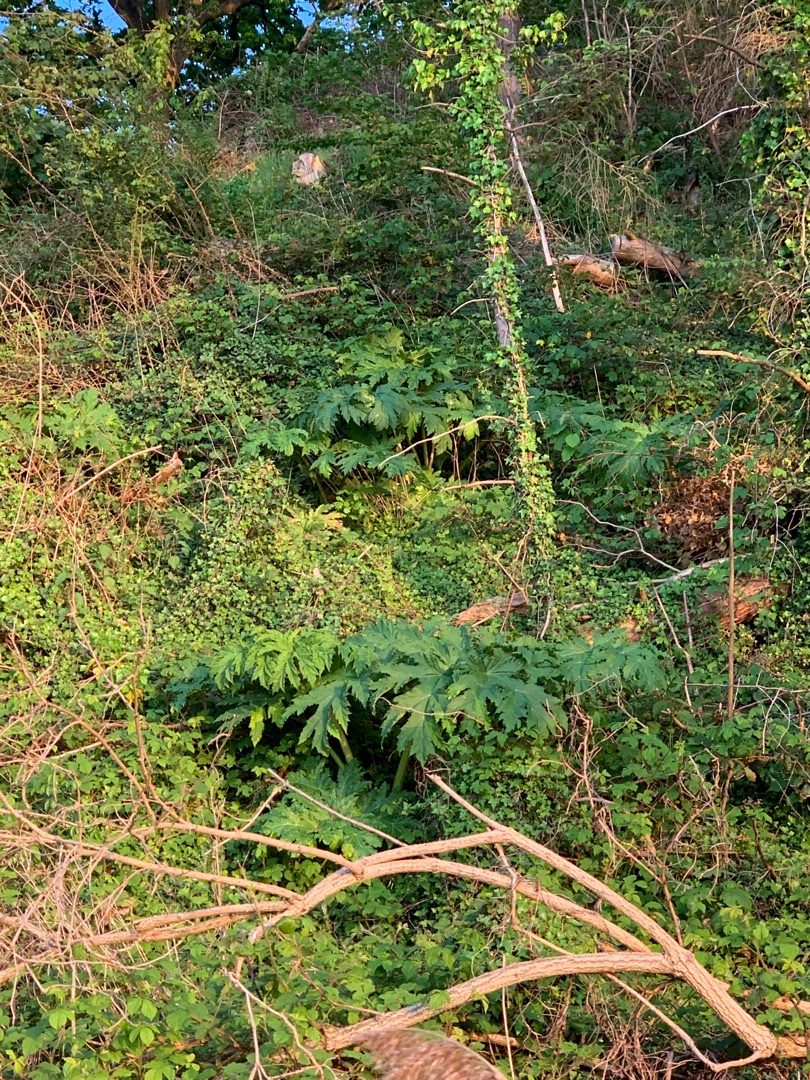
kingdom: Plantae
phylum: Tracheophyta
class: Magnoliopsida
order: Apiales
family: Apiaceae
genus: Heracleum
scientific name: Heracleum mantegazzianum
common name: Kæmpe-bjørneklo
